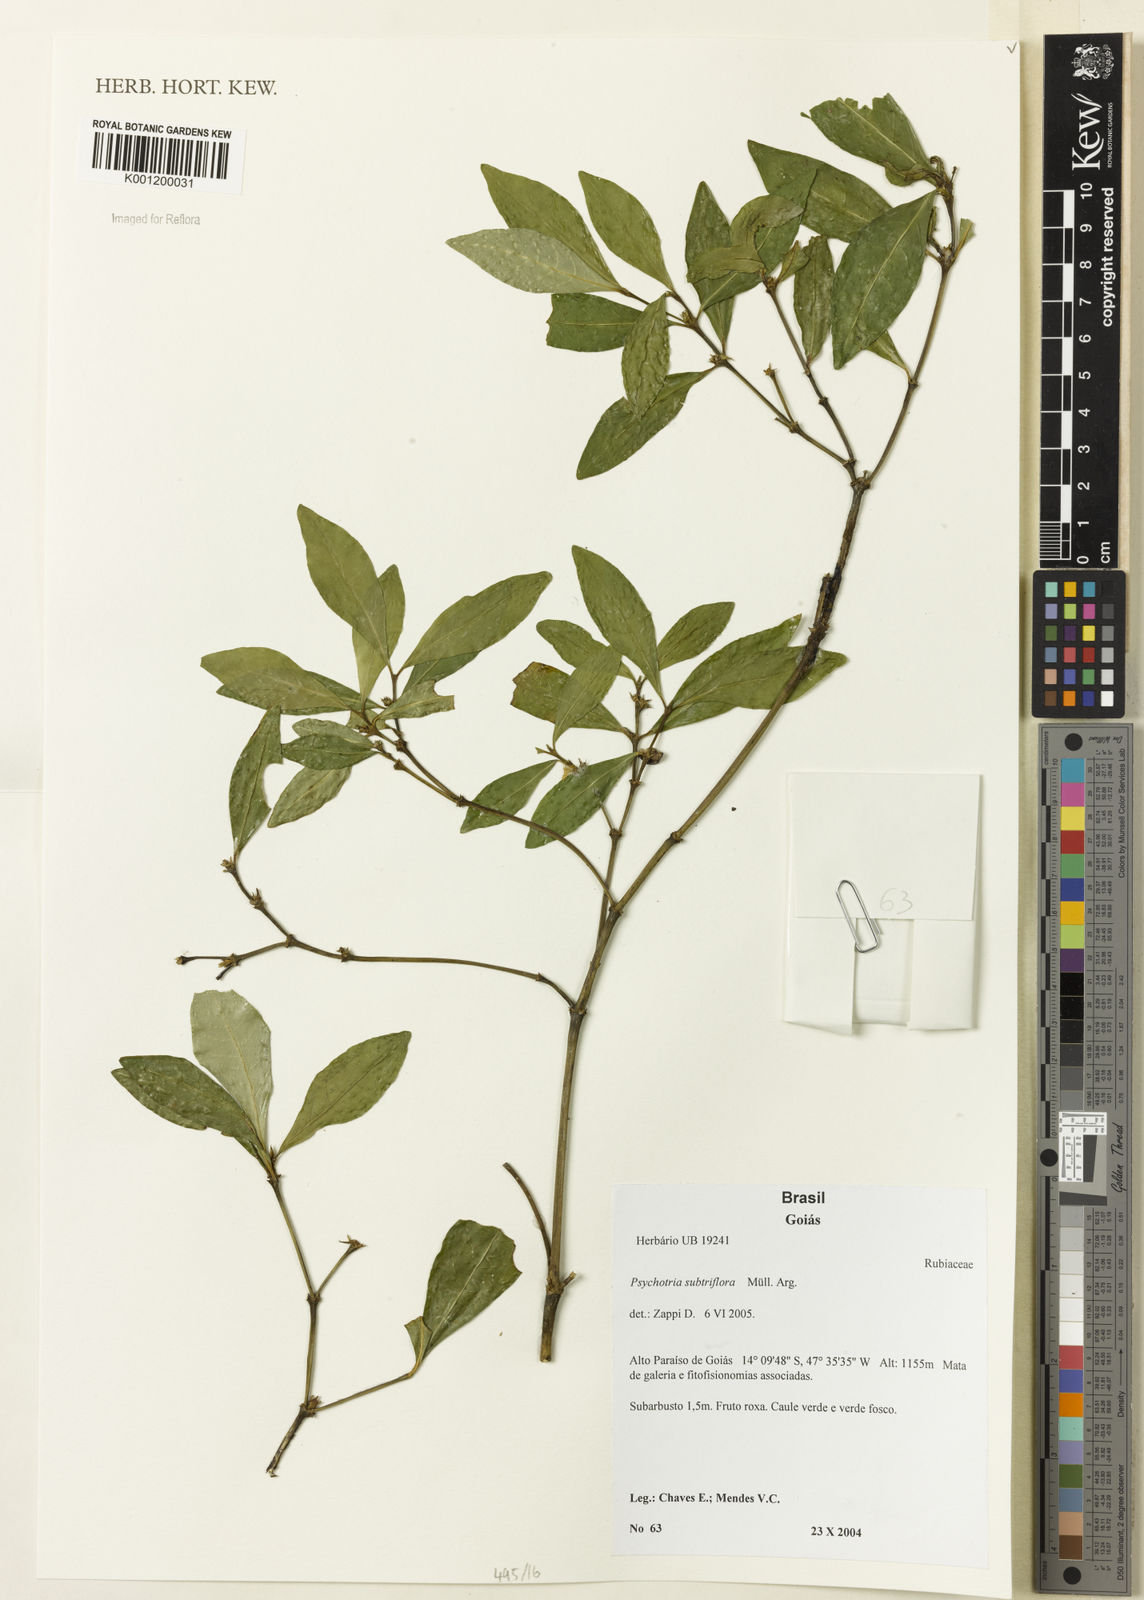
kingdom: Plantae
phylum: Tracheophyta
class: Magnoliopsida
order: Gentianales
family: Rubiaceae
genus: Psychotria
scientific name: Psychotria
